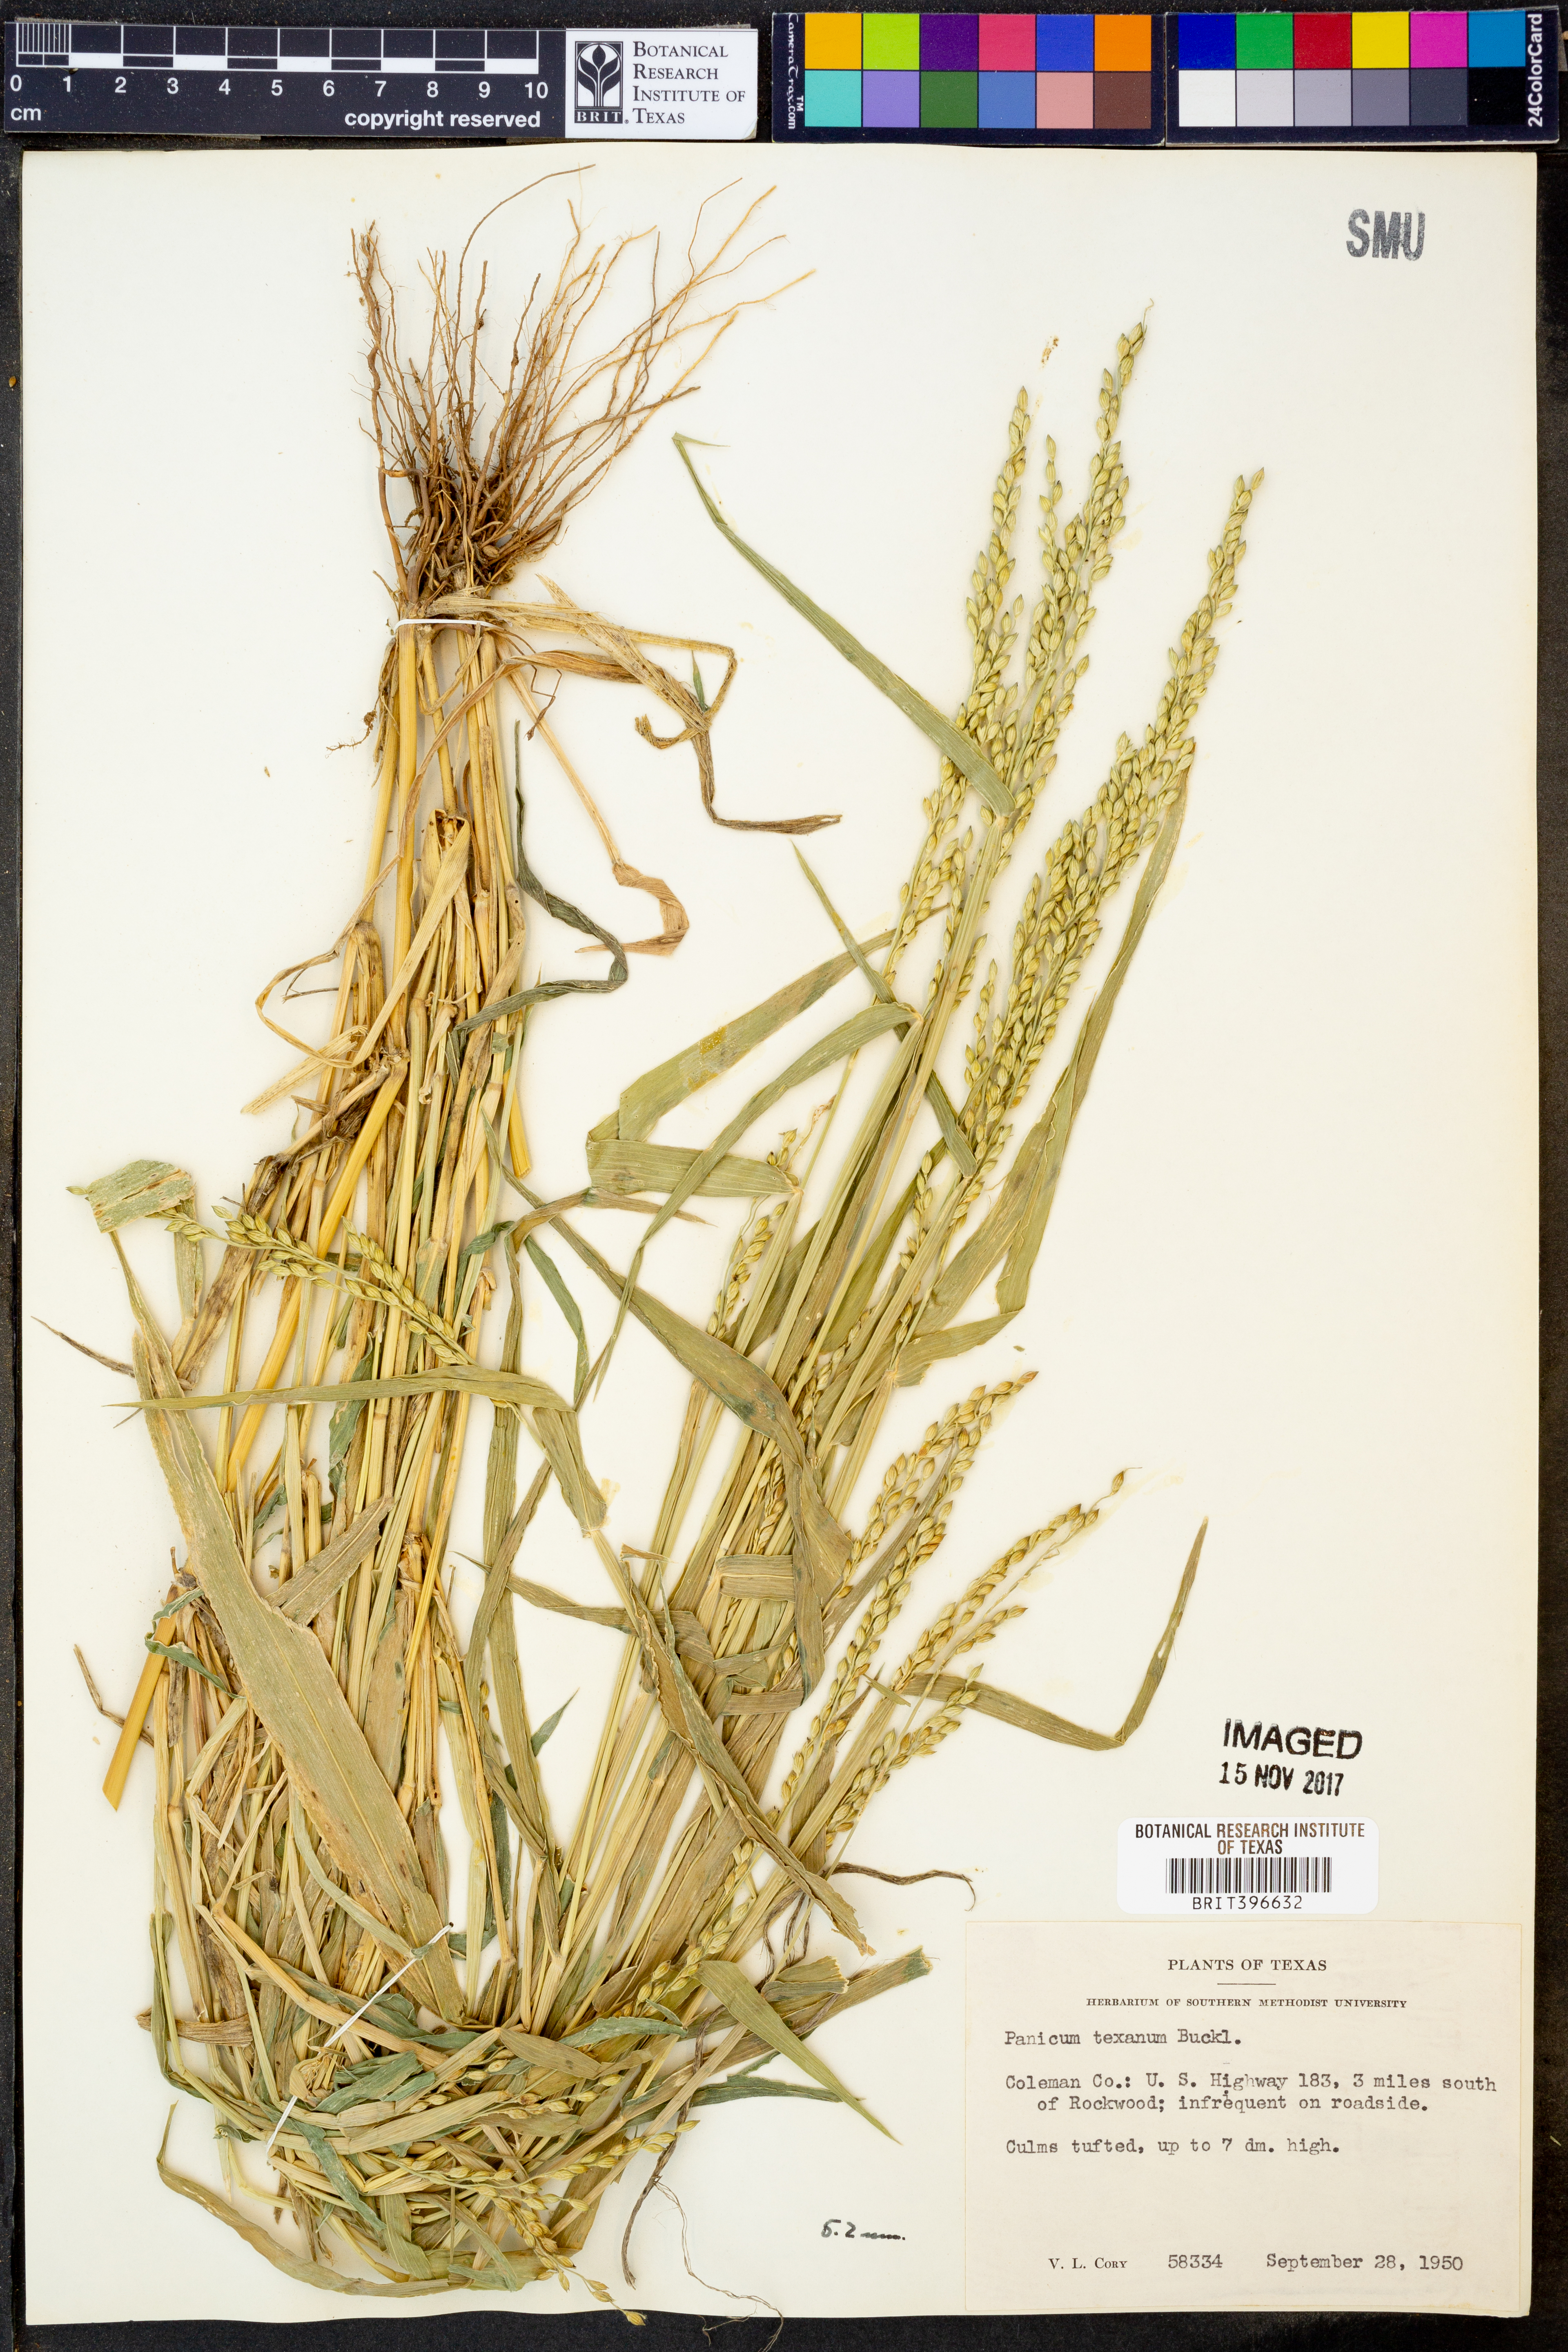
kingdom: Plantae
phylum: Tracheophyta
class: Liliopsida
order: Poales
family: Poaceae
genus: Urochloa
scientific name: Urochloa texana
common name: Texas millet
